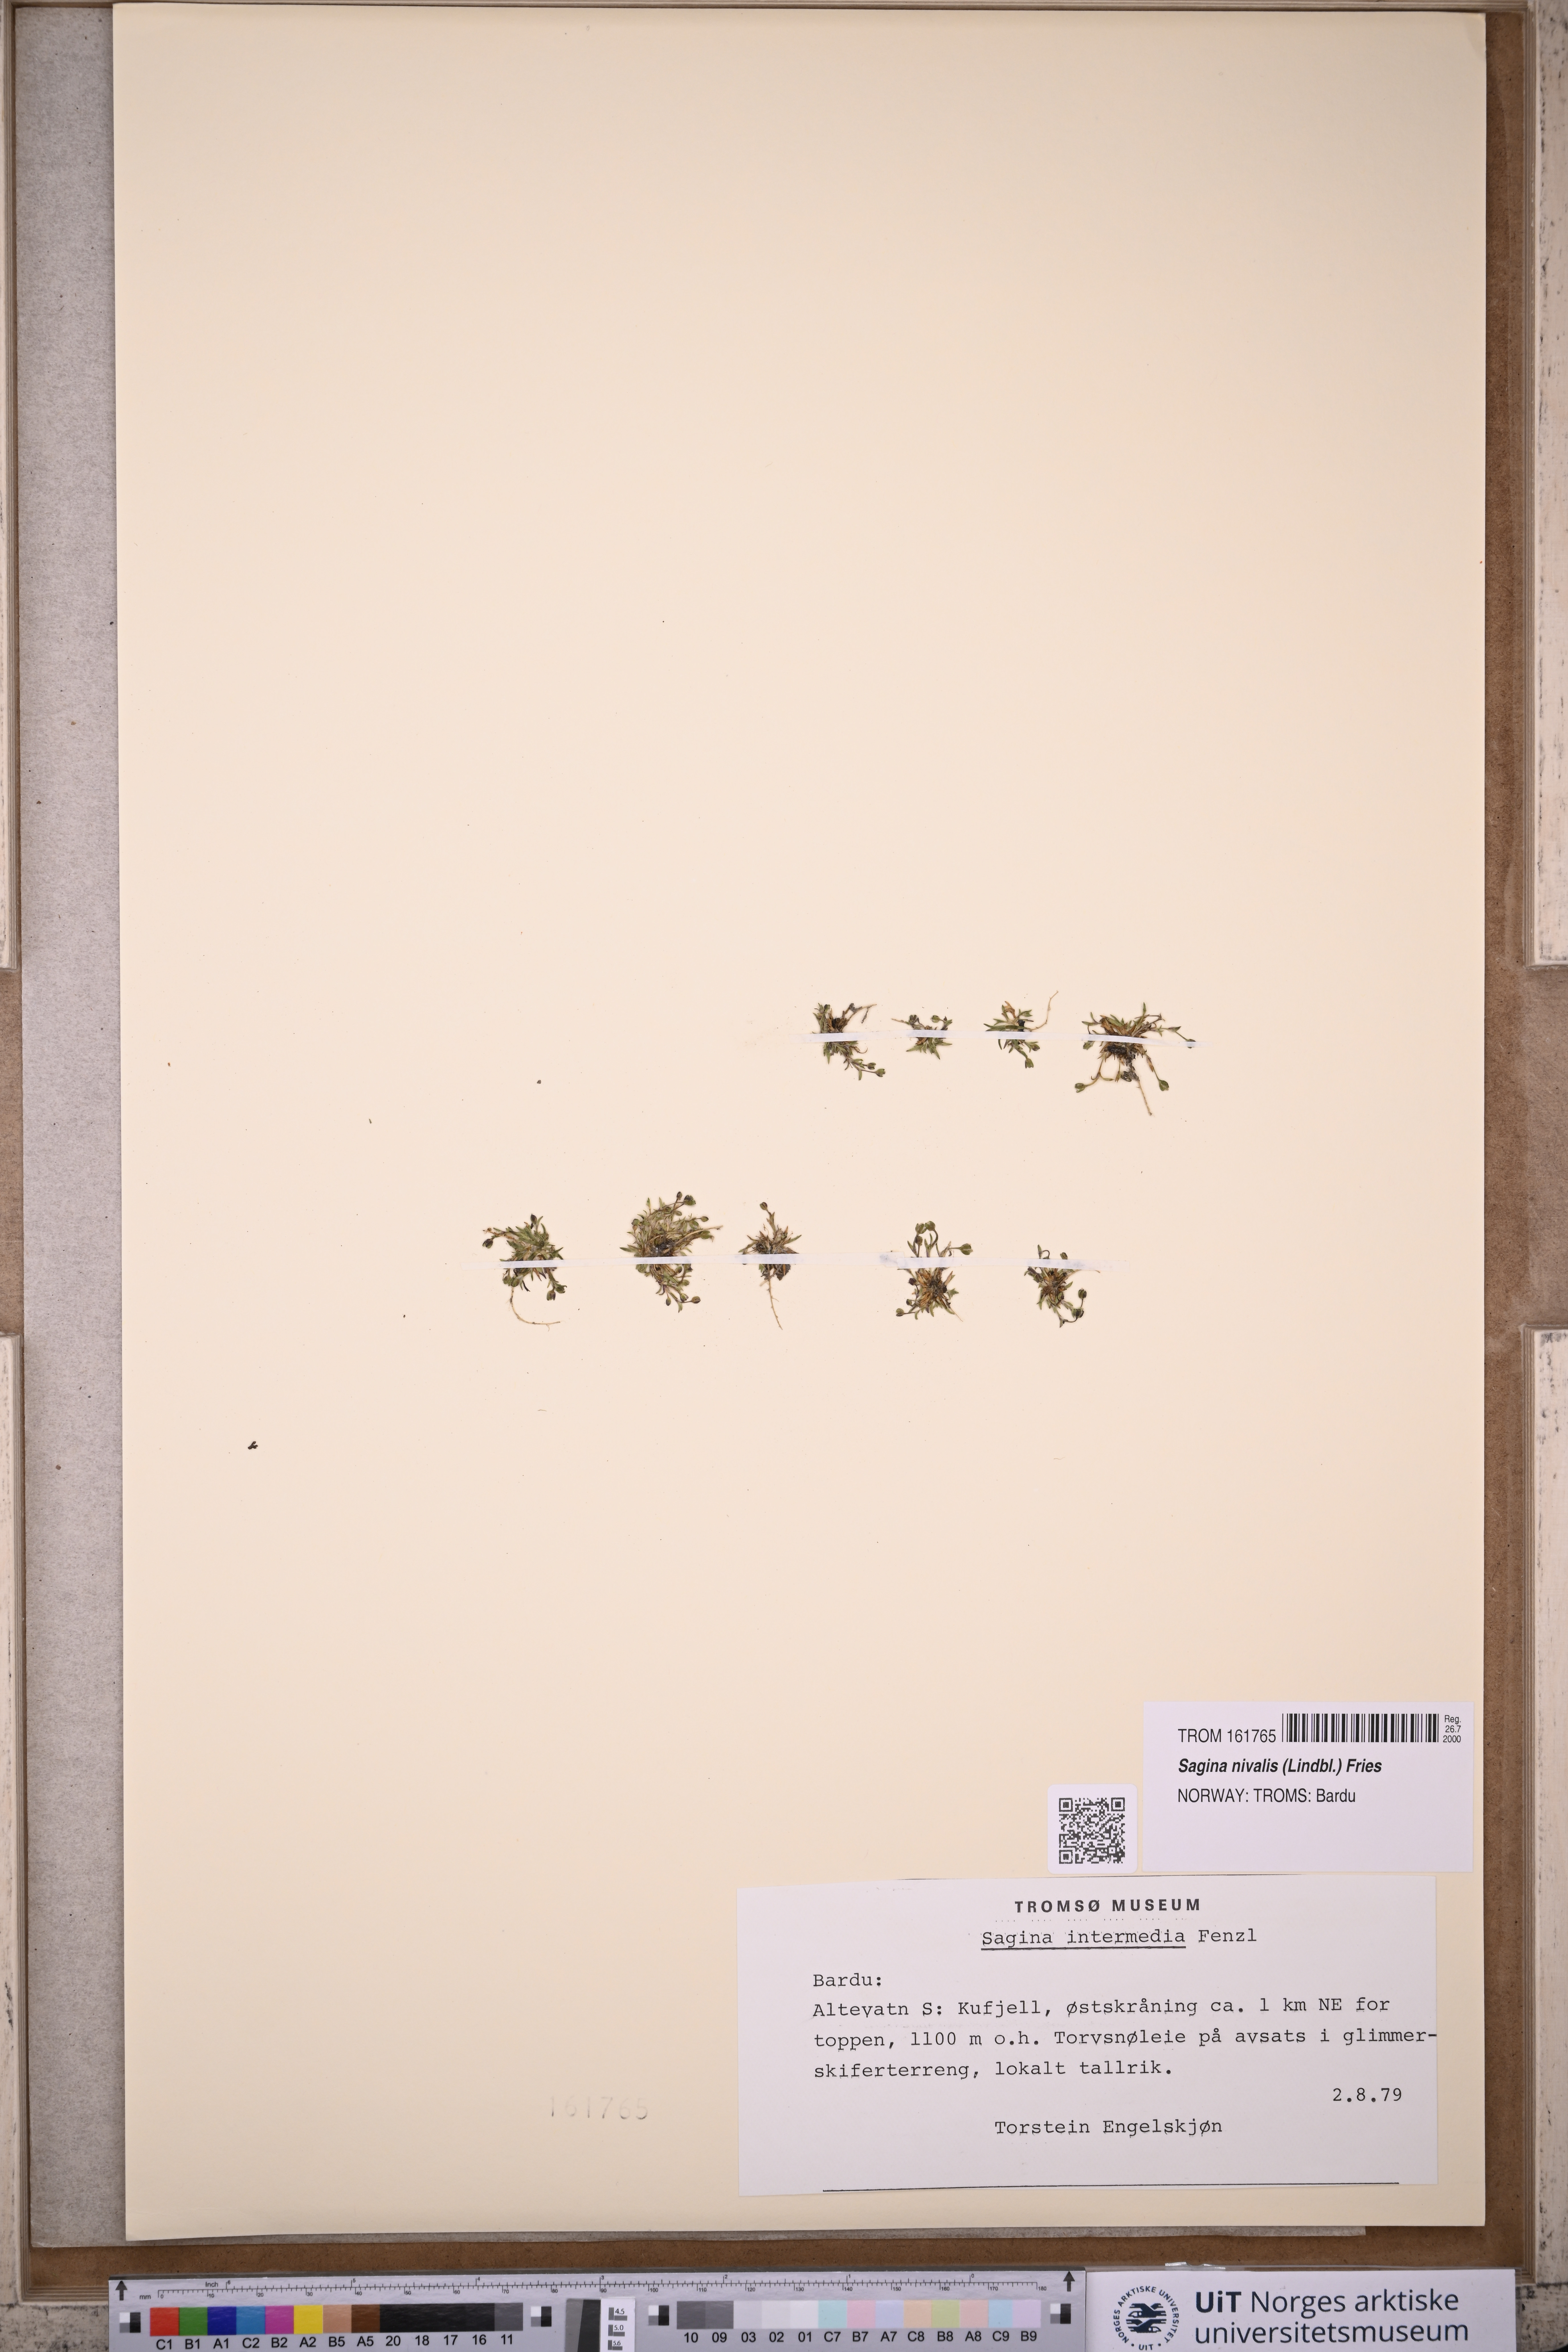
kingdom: Plantae
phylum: Tracheophyta
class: Magnoliopsida
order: Caryophyllales
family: Caryophyllaceae
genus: Sagina
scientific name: Sagina nivalis
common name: Snow pearlwort
